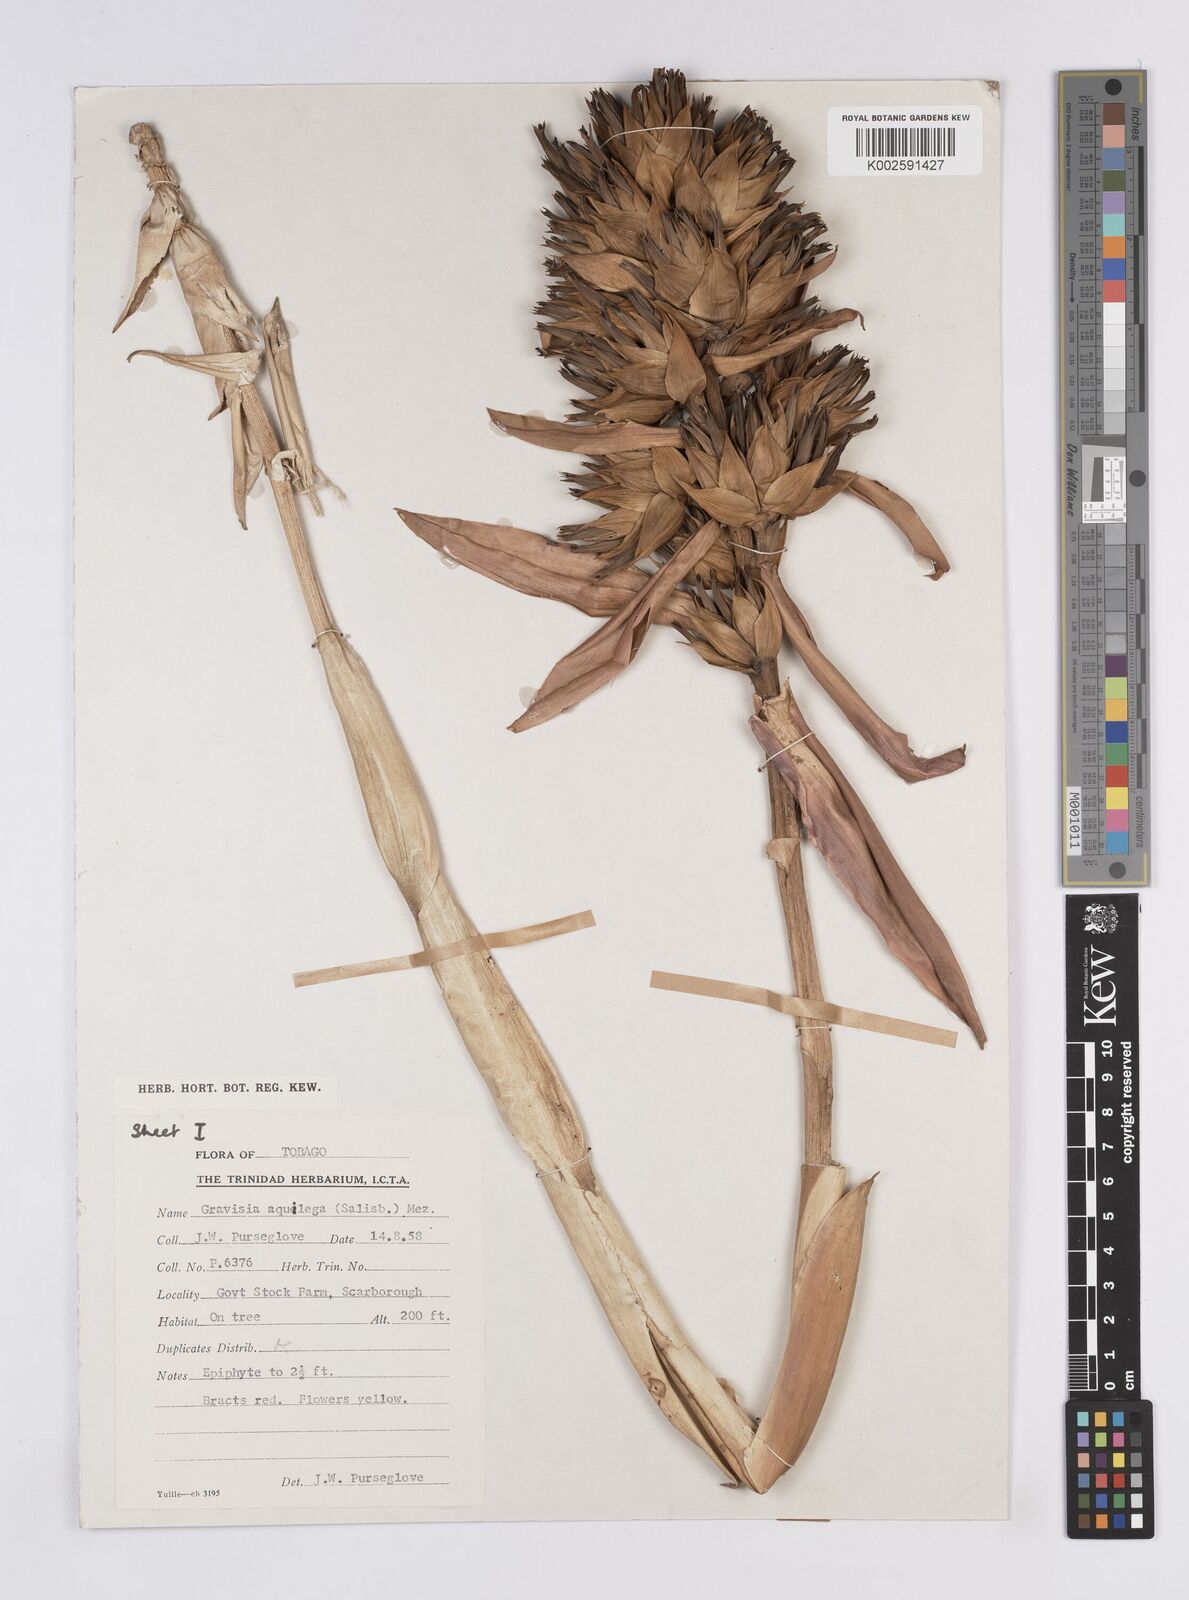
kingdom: Plantae
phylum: Tracheophyta
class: Liliopsida
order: Poales
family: Bromeliaceae
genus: Aechmea
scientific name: Aechmea aquilega
